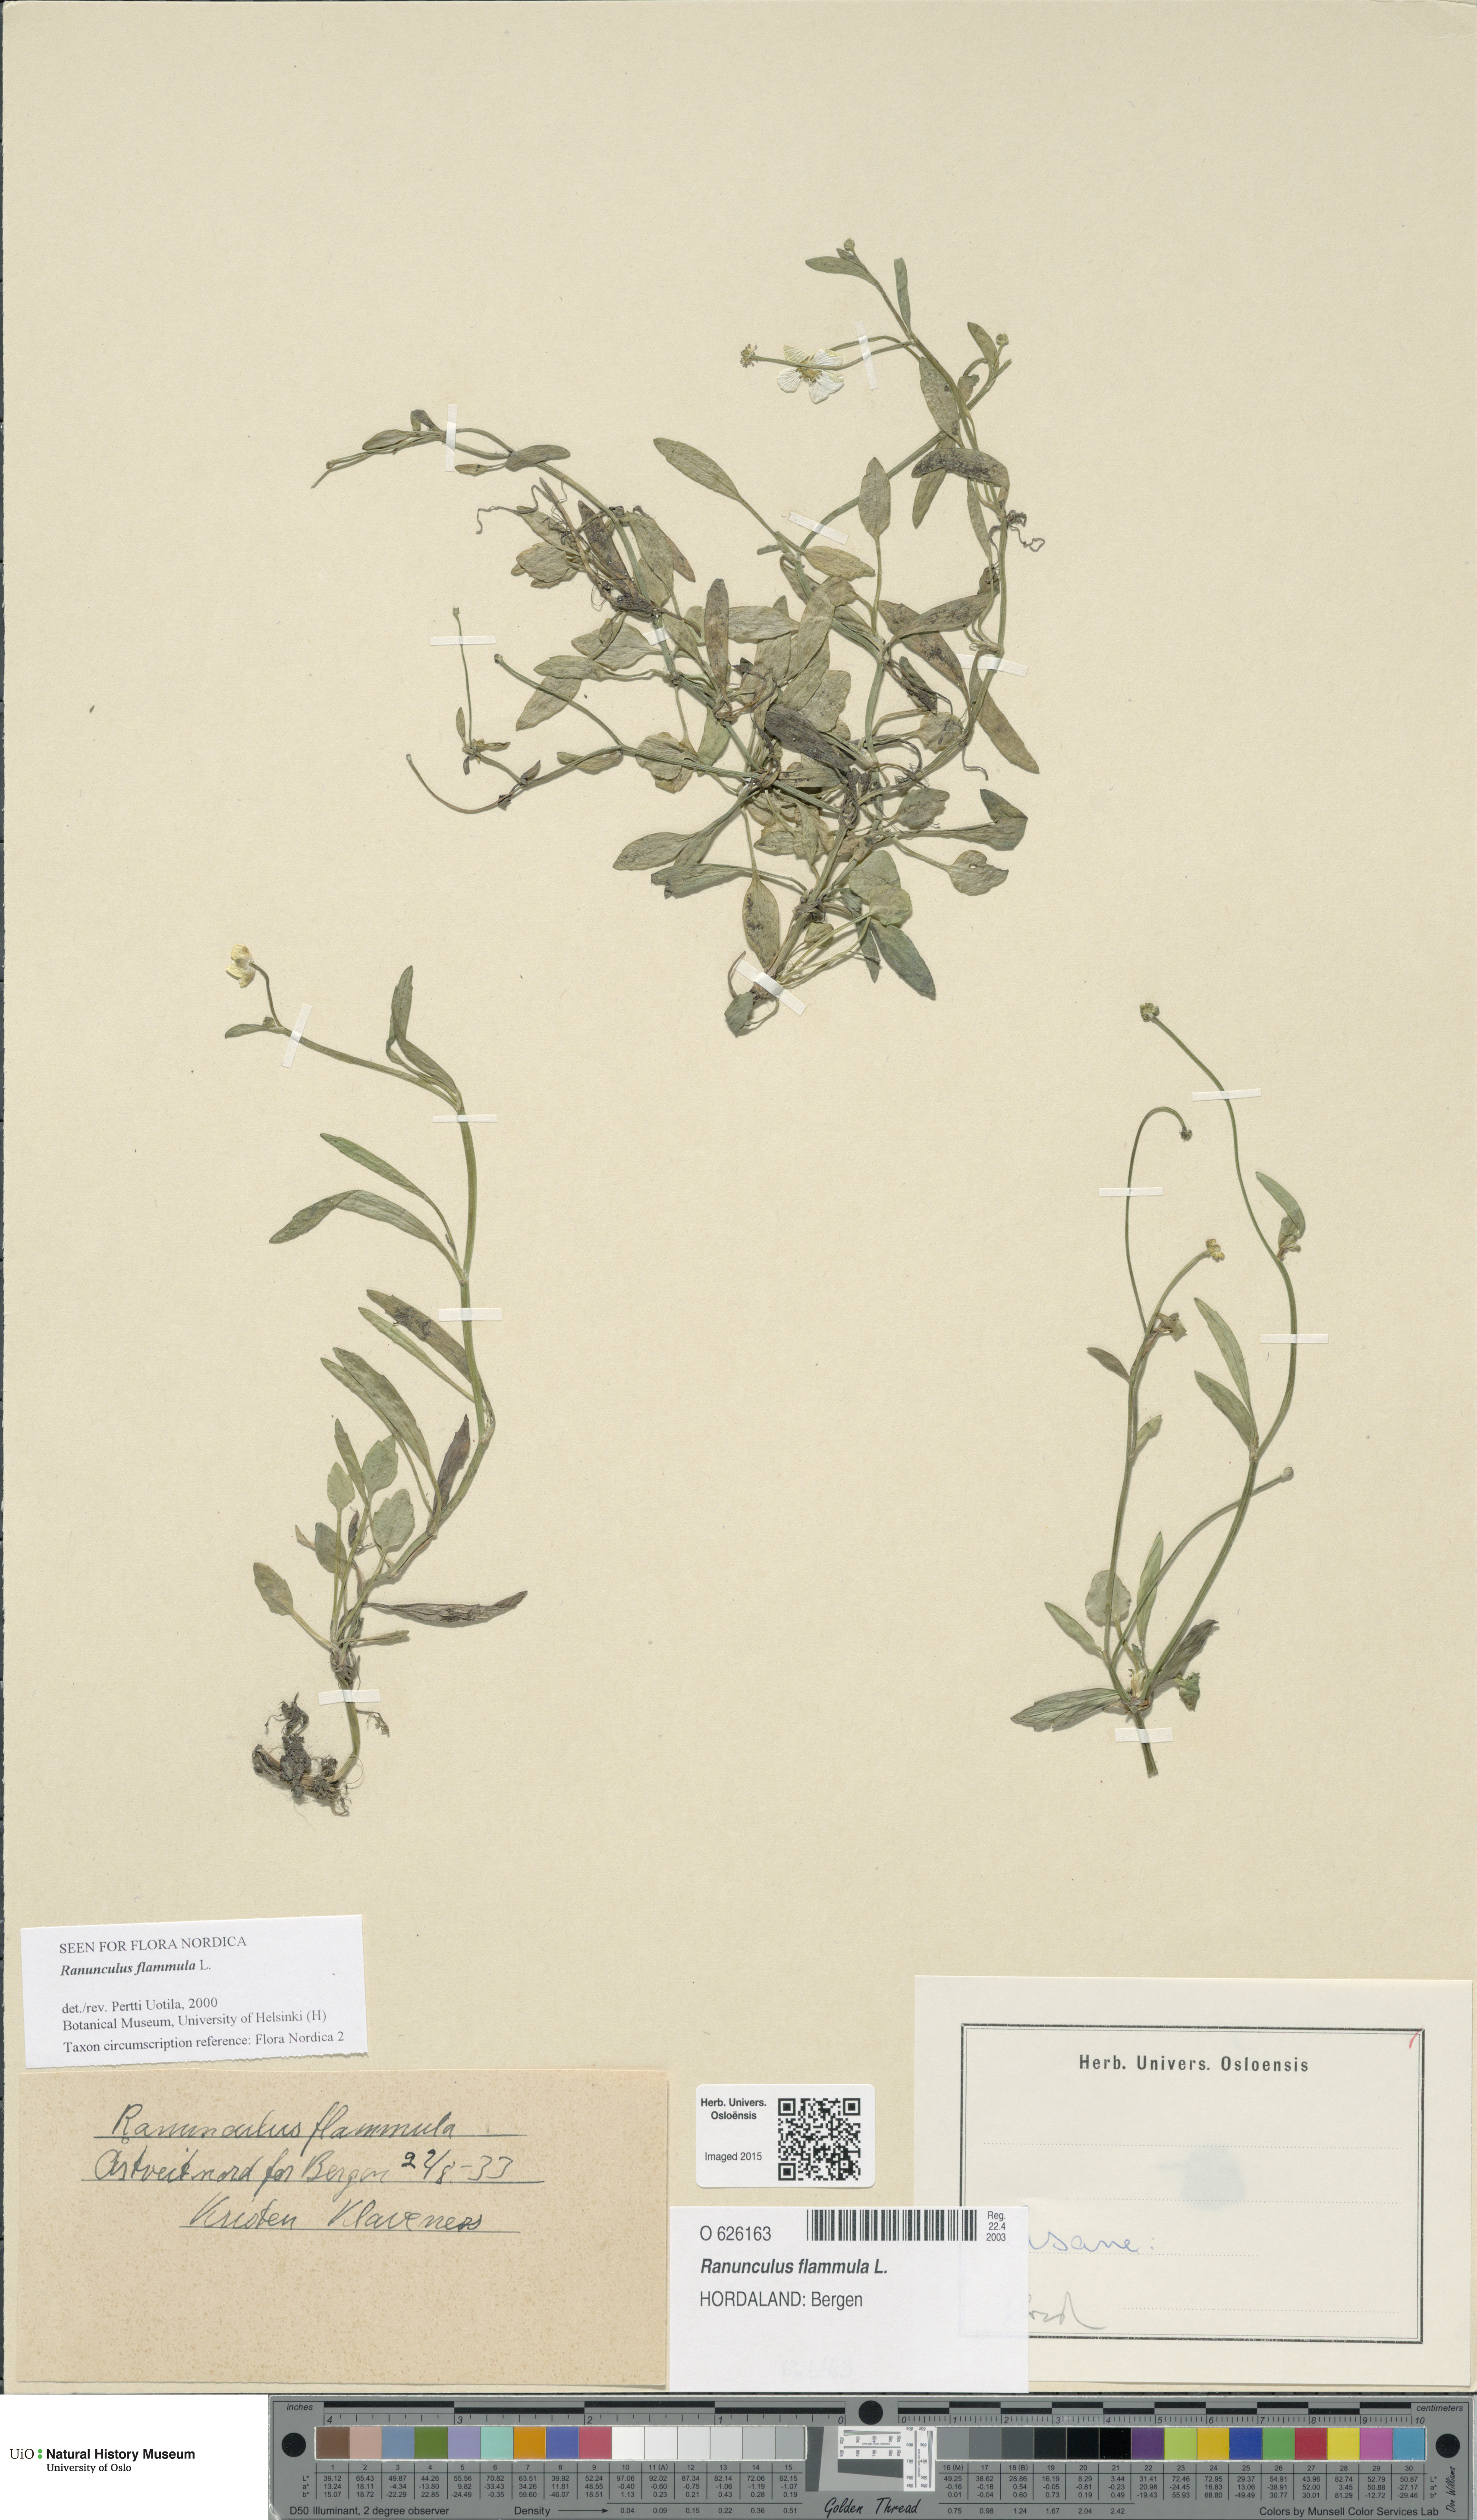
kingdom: Plantae
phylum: Tracheophyta
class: Magnoliopsida
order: Ranunculales
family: Ranunculaceae
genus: Ranunculus
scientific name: Ranunculus flammula
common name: Lesser spearwort
